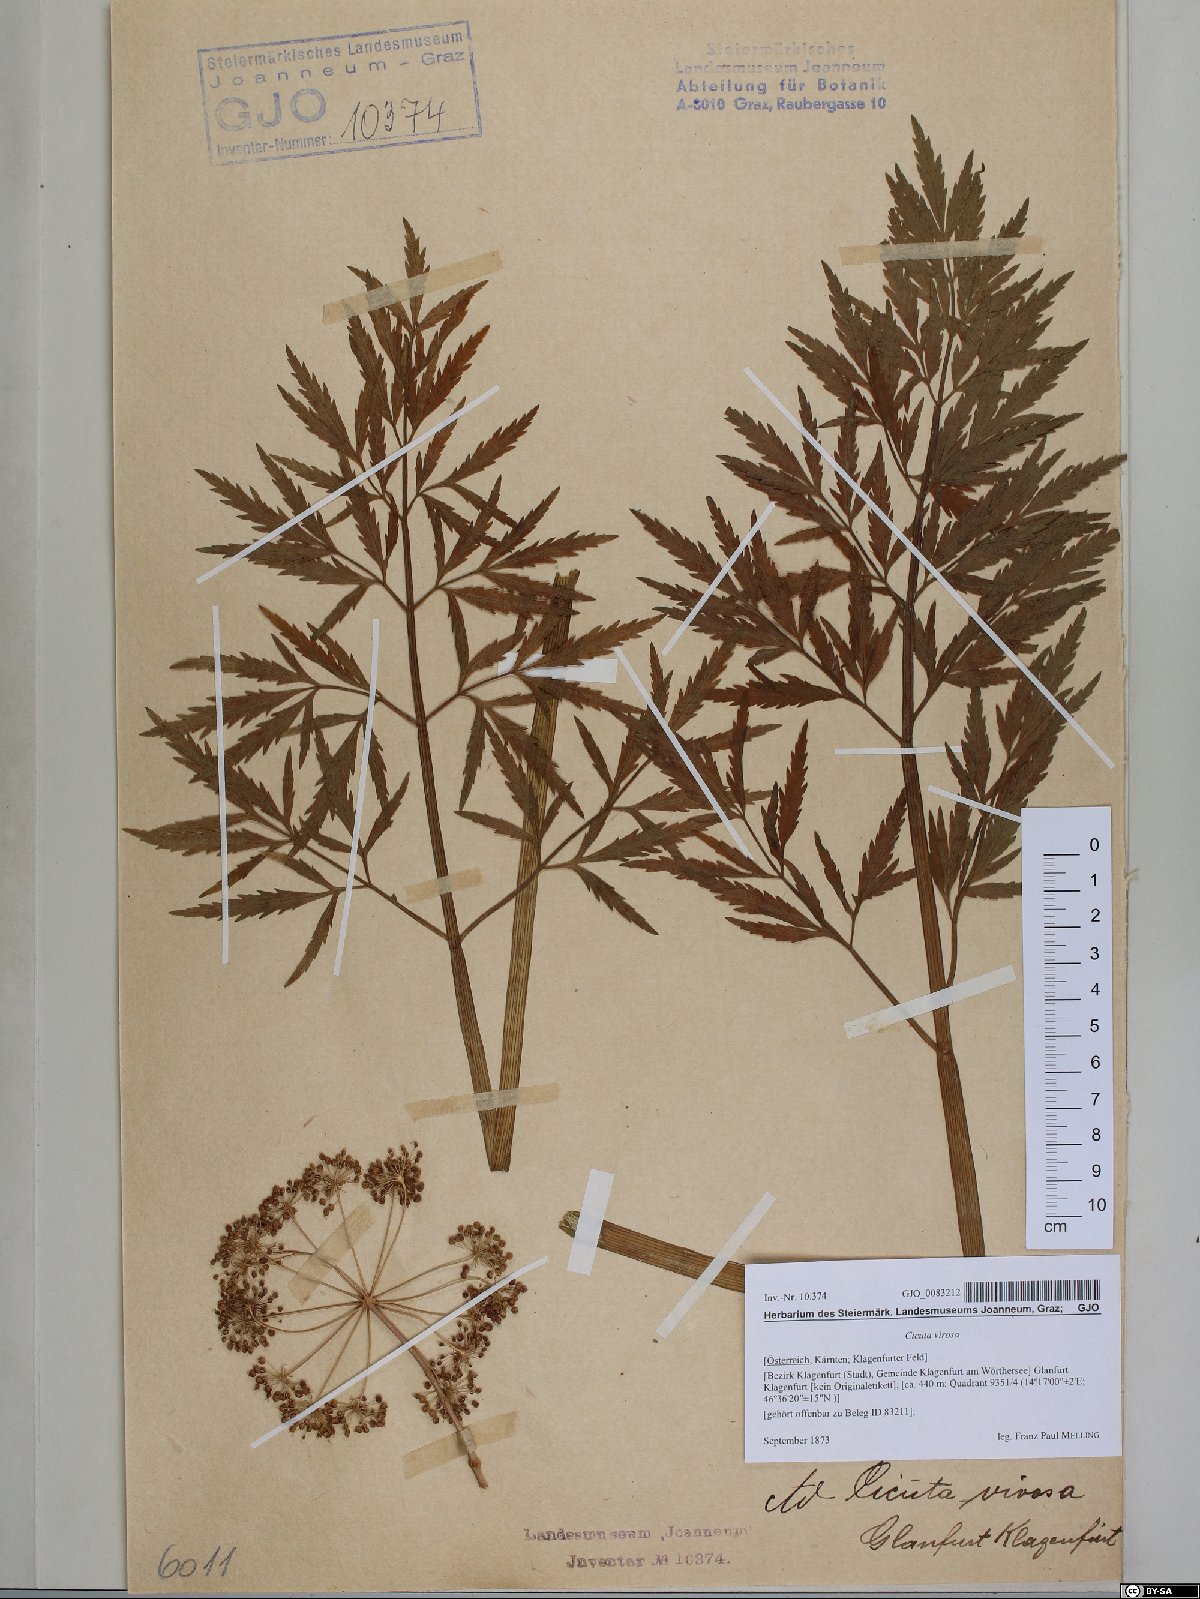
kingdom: Plantae
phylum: Tracheophyta
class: Magnoliopsida
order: Apiales
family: Apiaceae
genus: Cicuta
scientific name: Cicuta virosa
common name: Cowbane
